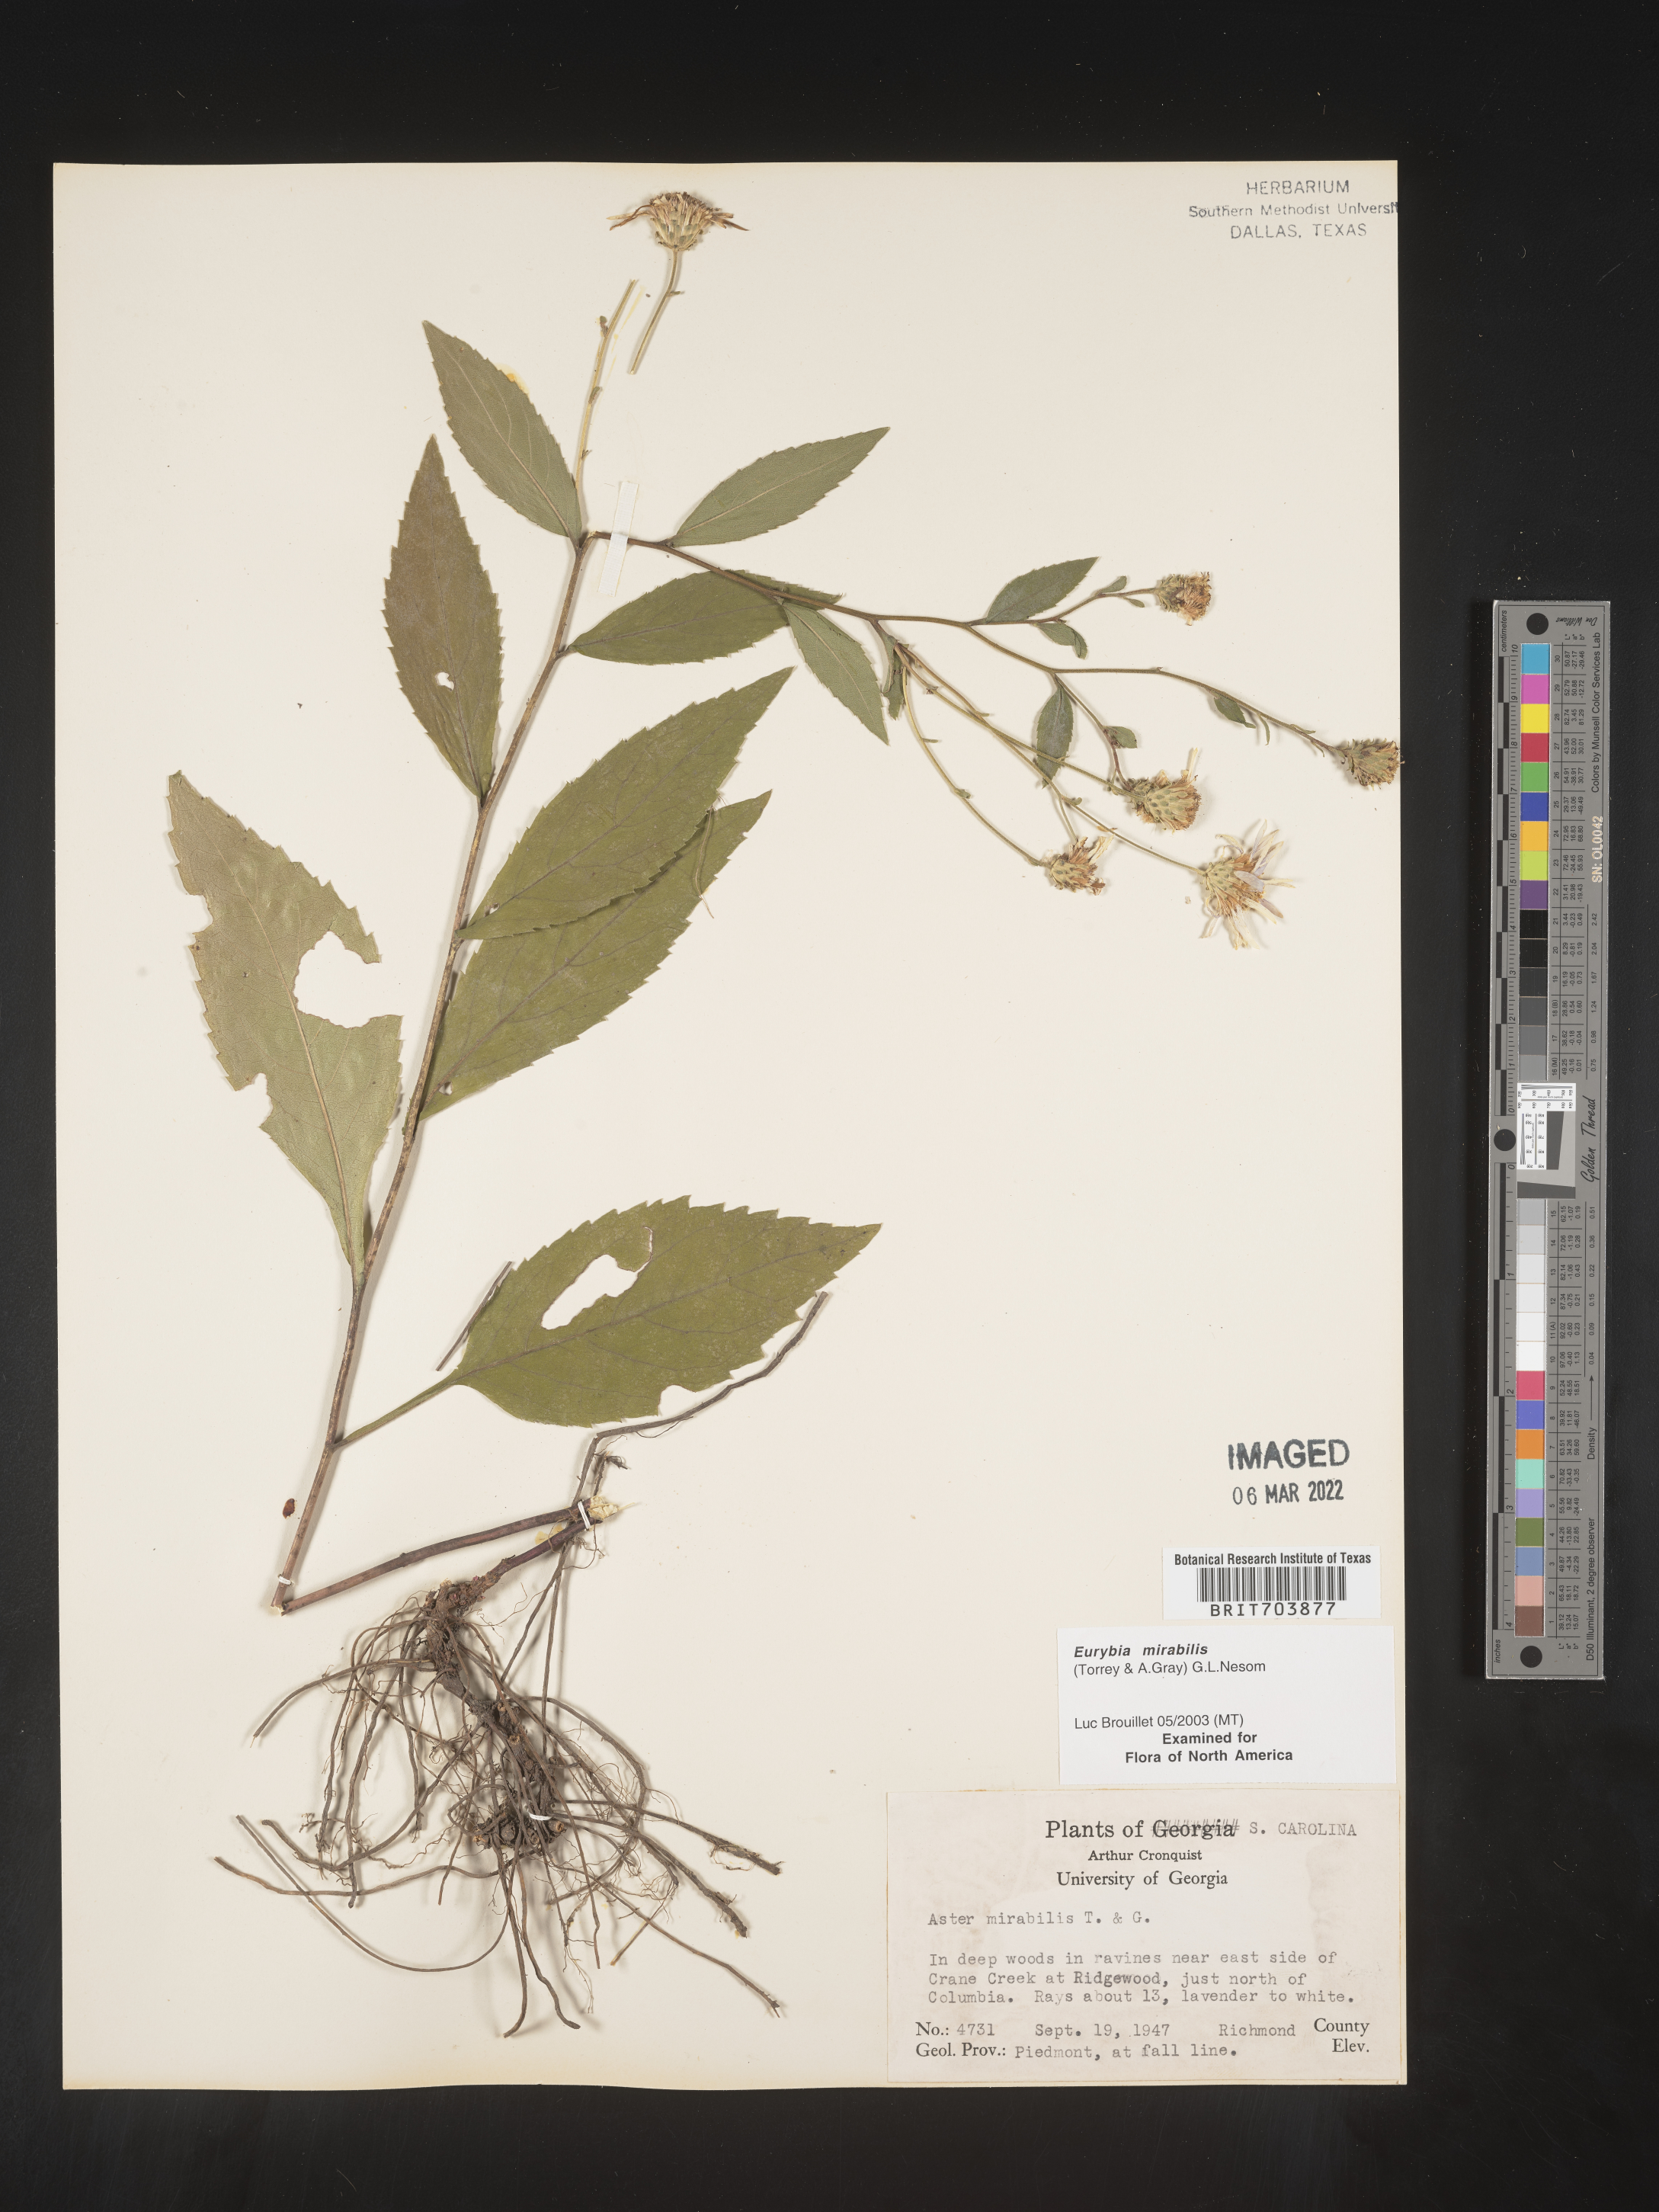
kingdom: Plantae
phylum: Tracheophyta
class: Magnoliopsida
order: Asterales
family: Asteraceae
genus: Eurybia
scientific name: Eurybia mirabilis
